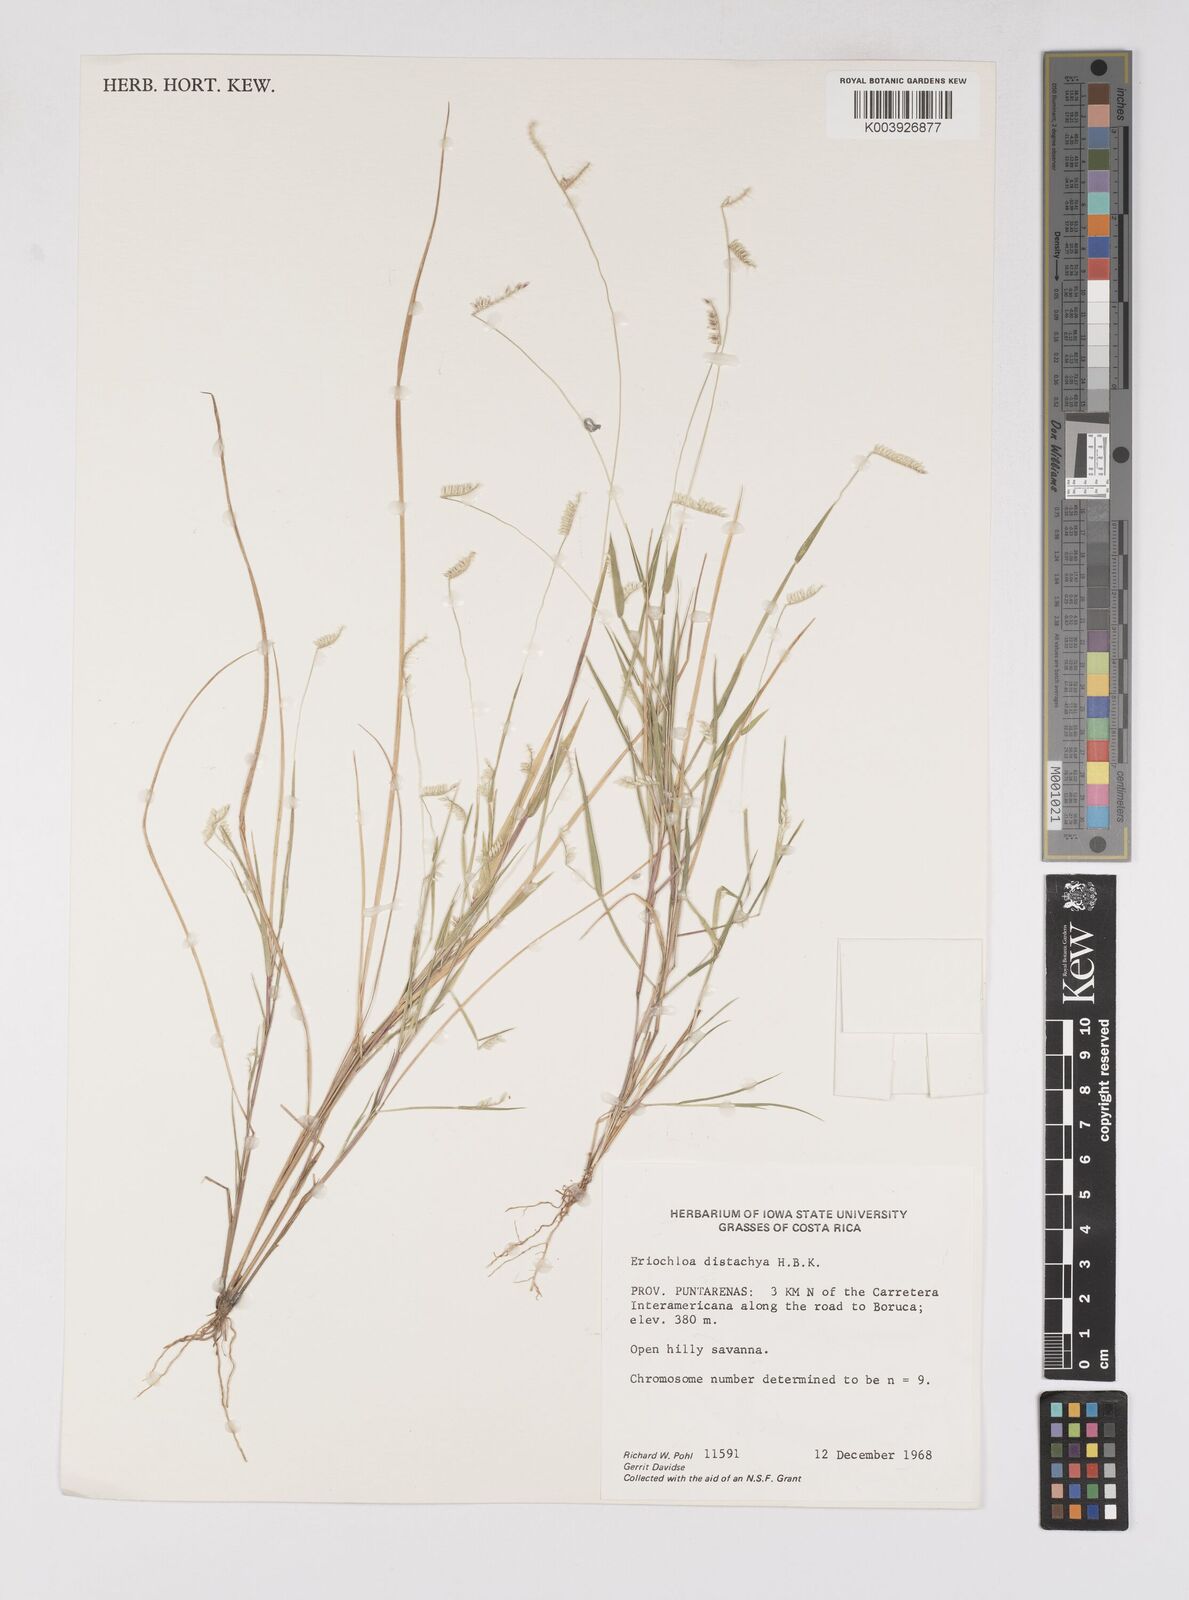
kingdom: Plantae
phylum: Tracheophyta
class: Liliopsida
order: Poales
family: Poaceae
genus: Eriochloa
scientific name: Eriochloa distachya
